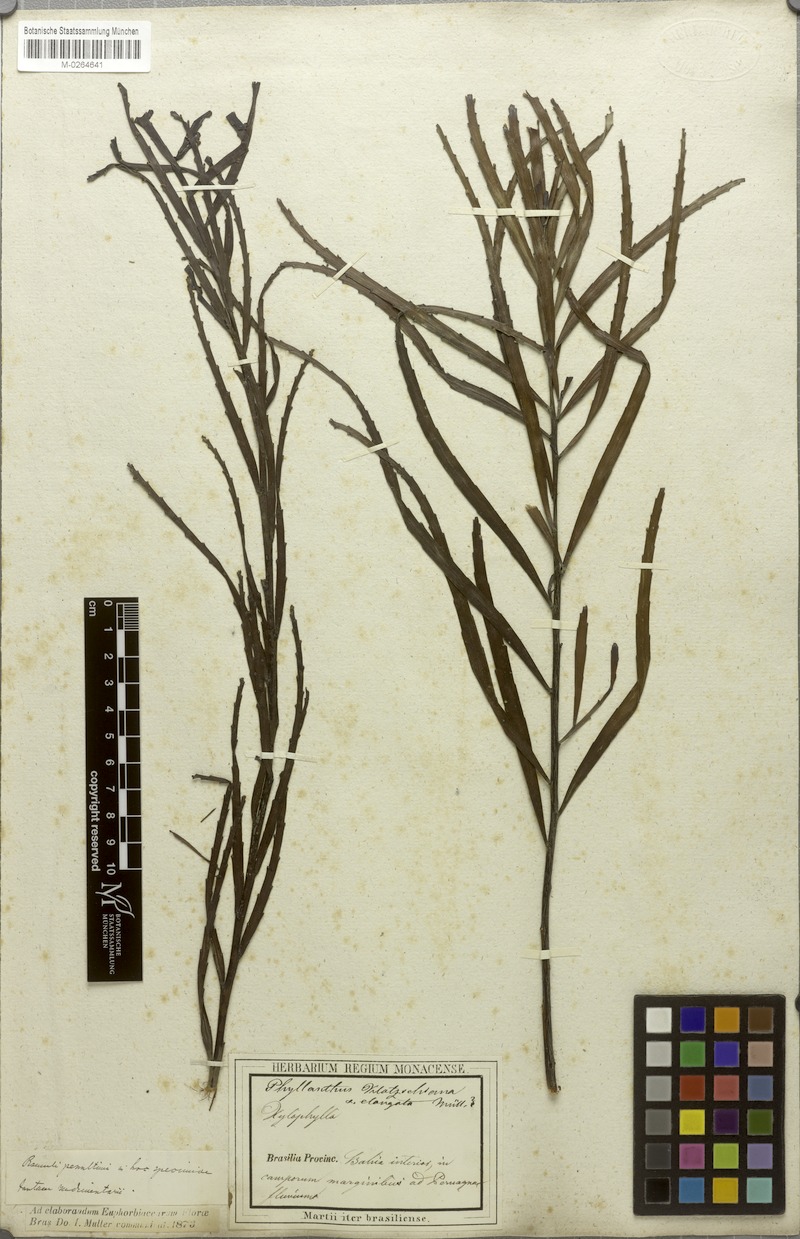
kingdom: Plantae
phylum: Tracheophyta
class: Magnoliopsida
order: Malpighiales
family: Phyllanthaceae
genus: Phyllanthus
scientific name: Phyllanthus robustus
